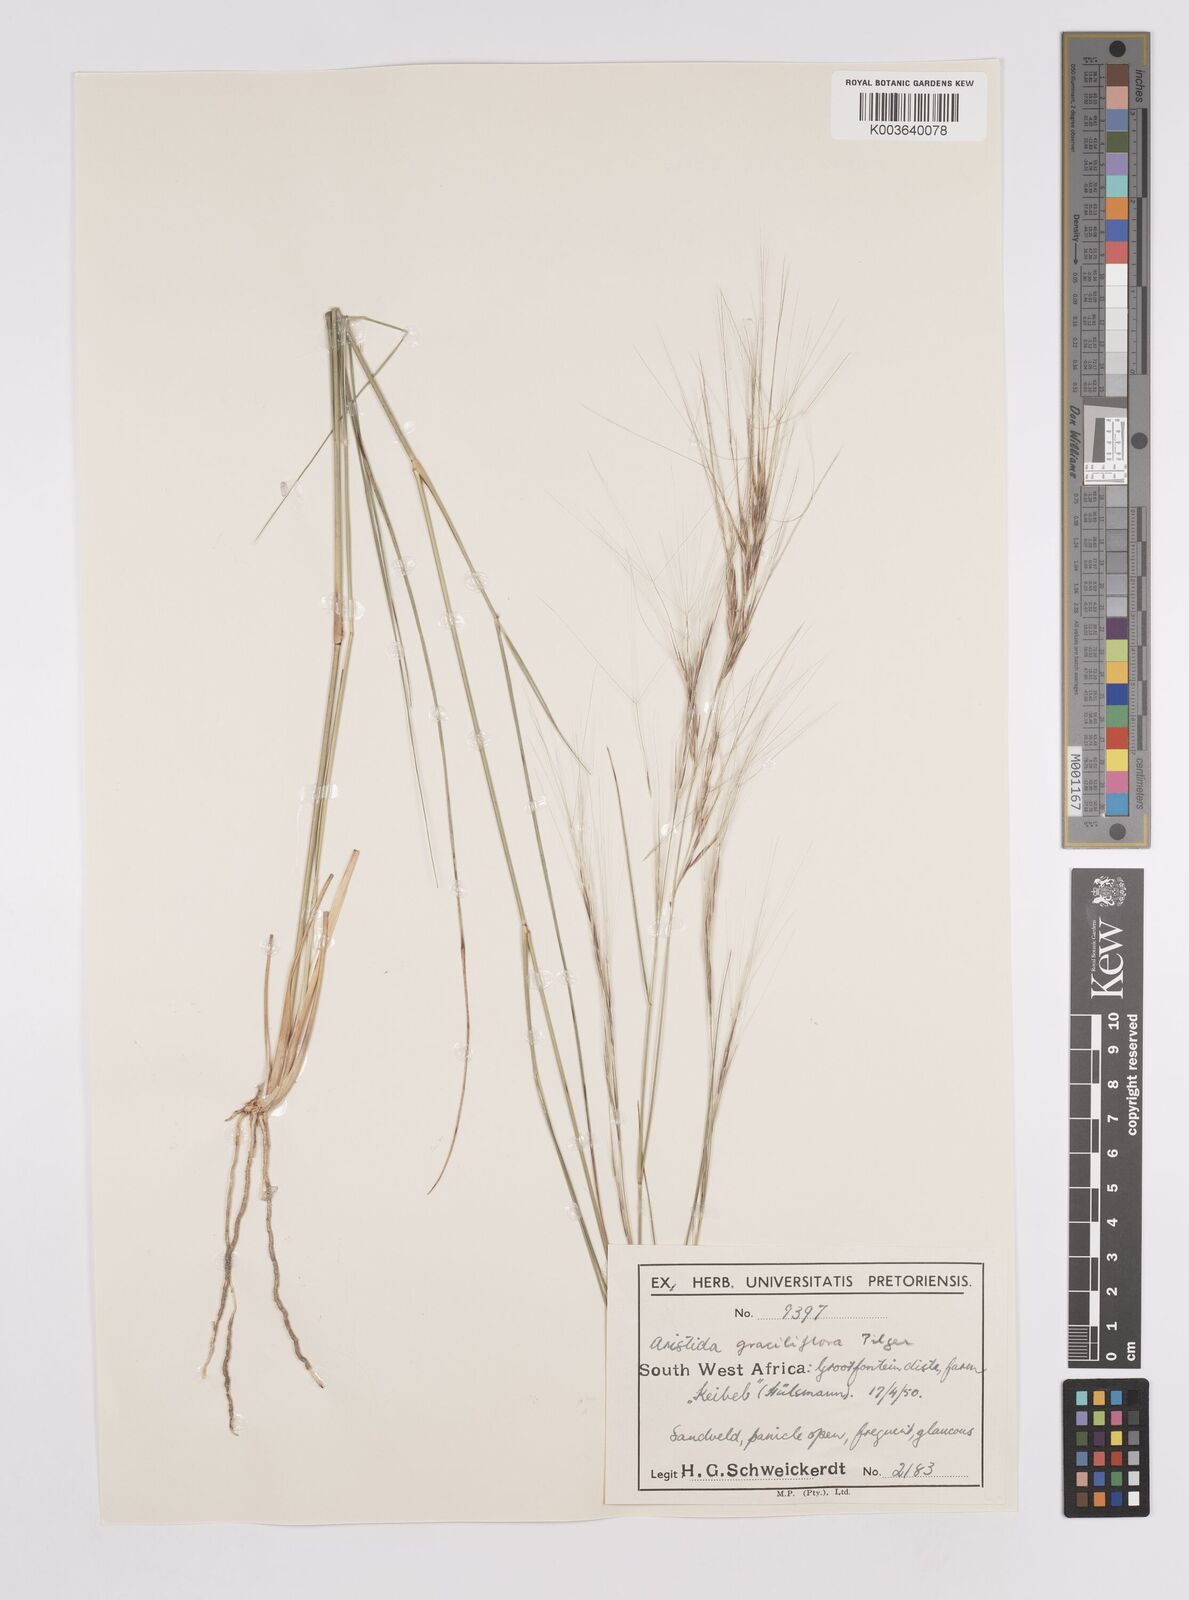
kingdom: Plantae
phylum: Tracheophyta
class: Liliopsida
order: Poales
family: Poaceae
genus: Aristida
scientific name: Aristida stipitata
